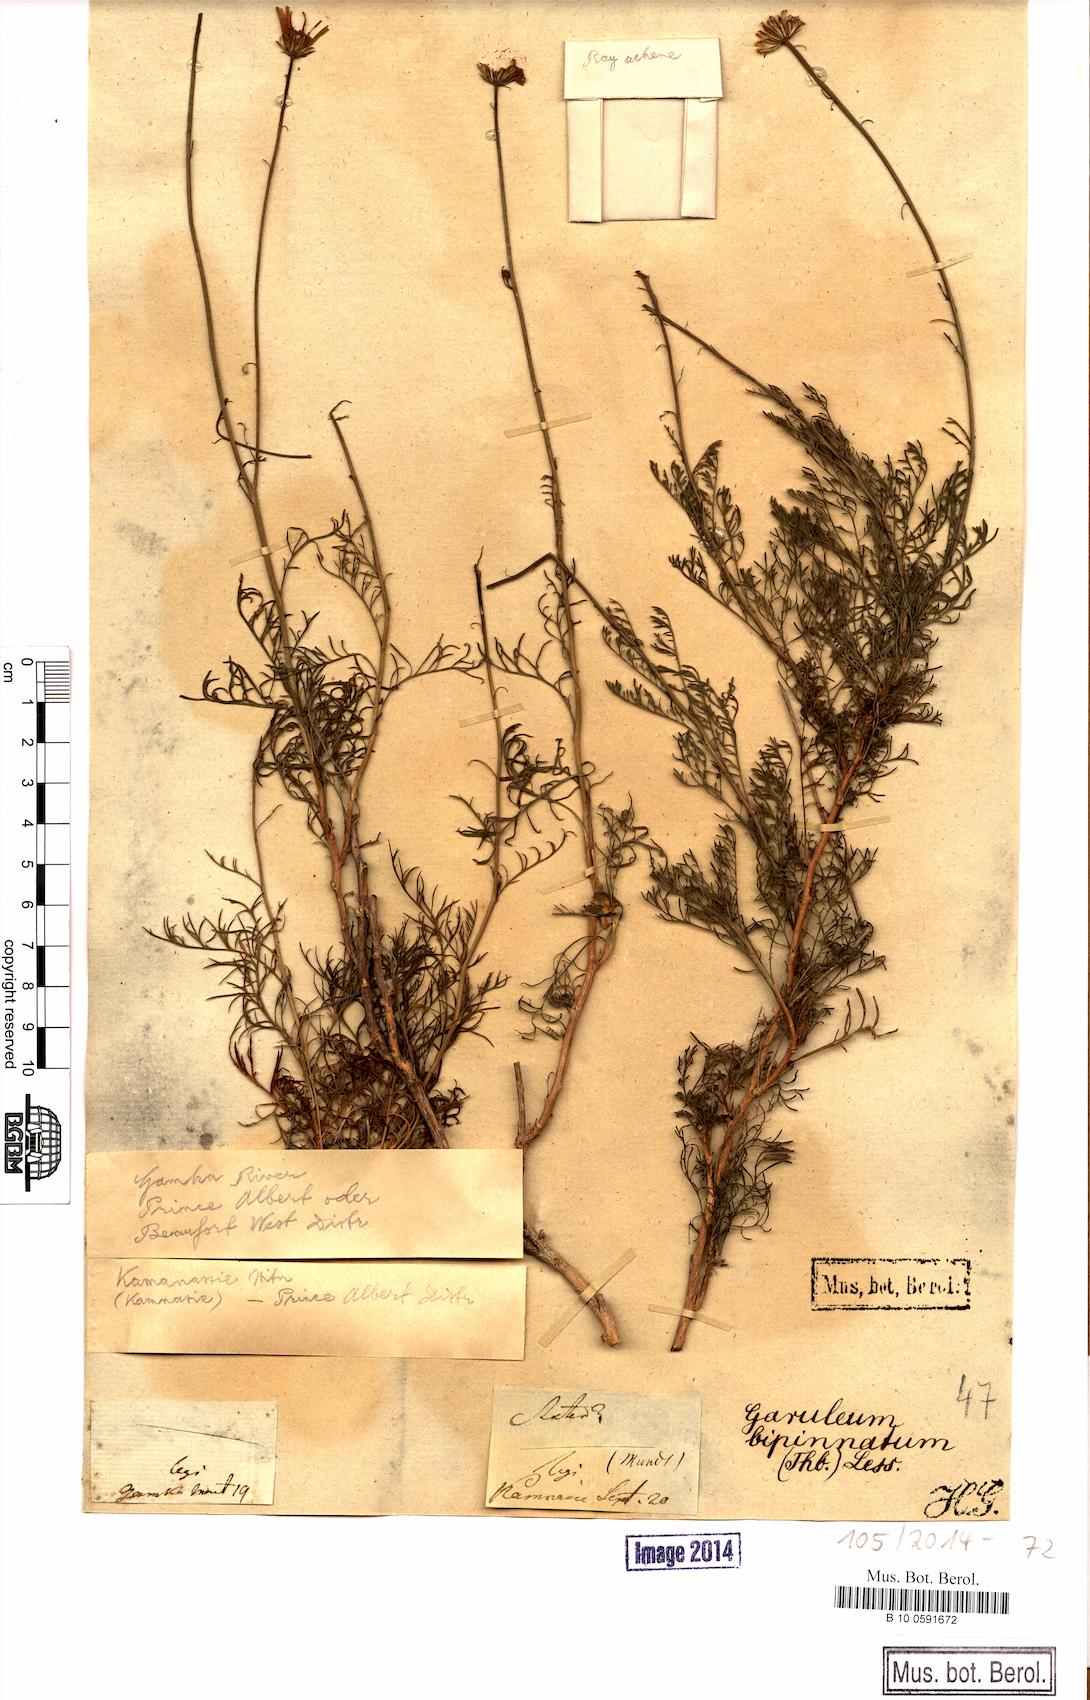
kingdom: Plantae
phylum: Tracheophyta
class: Magnoliopsida
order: Asterales
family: Asteraceae
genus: Garuleum
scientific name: Garuleum bipinnatum
